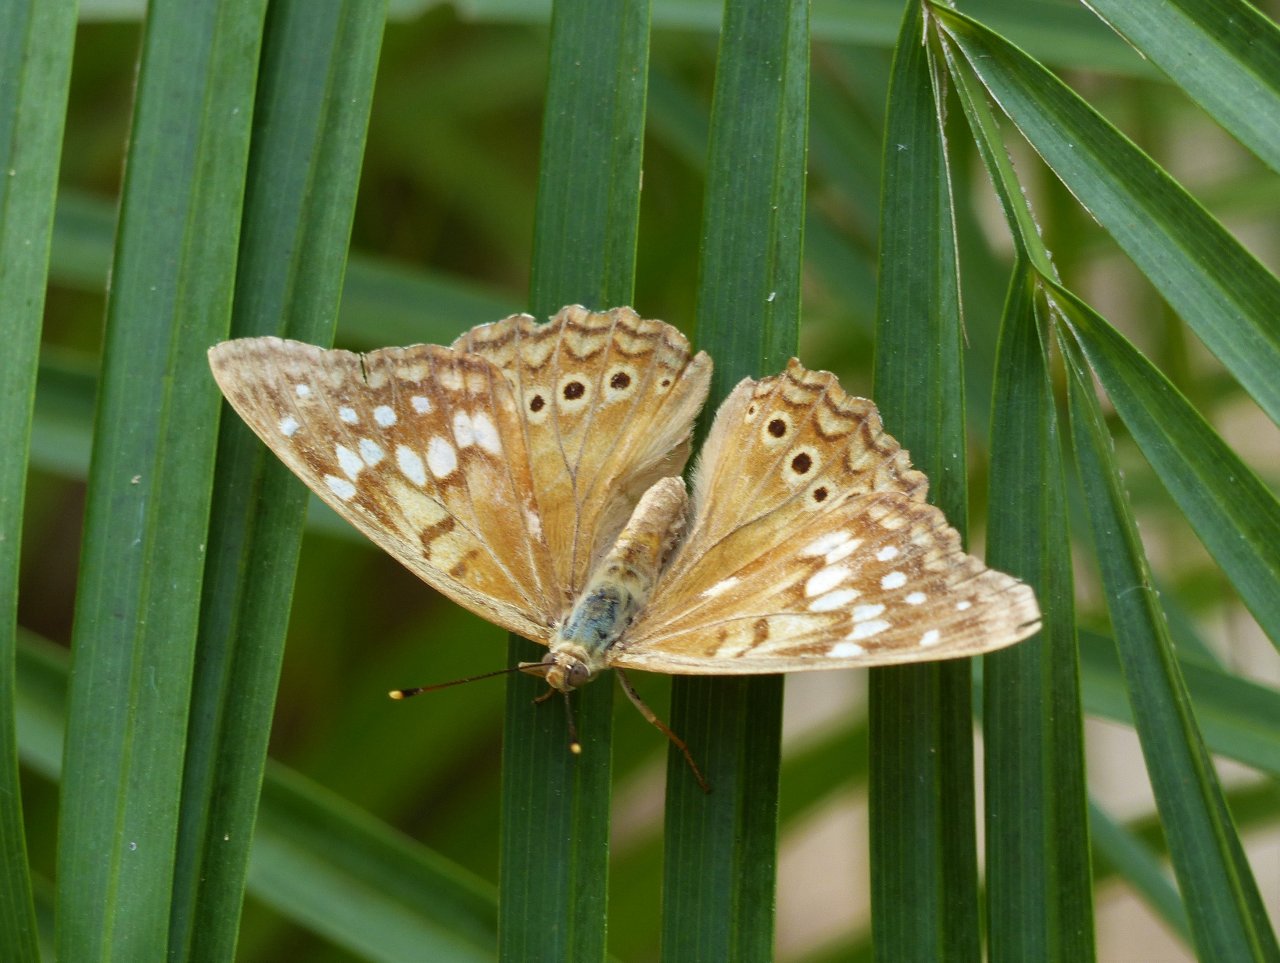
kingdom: Animalia
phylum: Arthropoda
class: Insecta
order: Lepidoptera
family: Nymphalidae
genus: Asterocampa
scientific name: Asterocampa clyton
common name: Tawny Emperor
